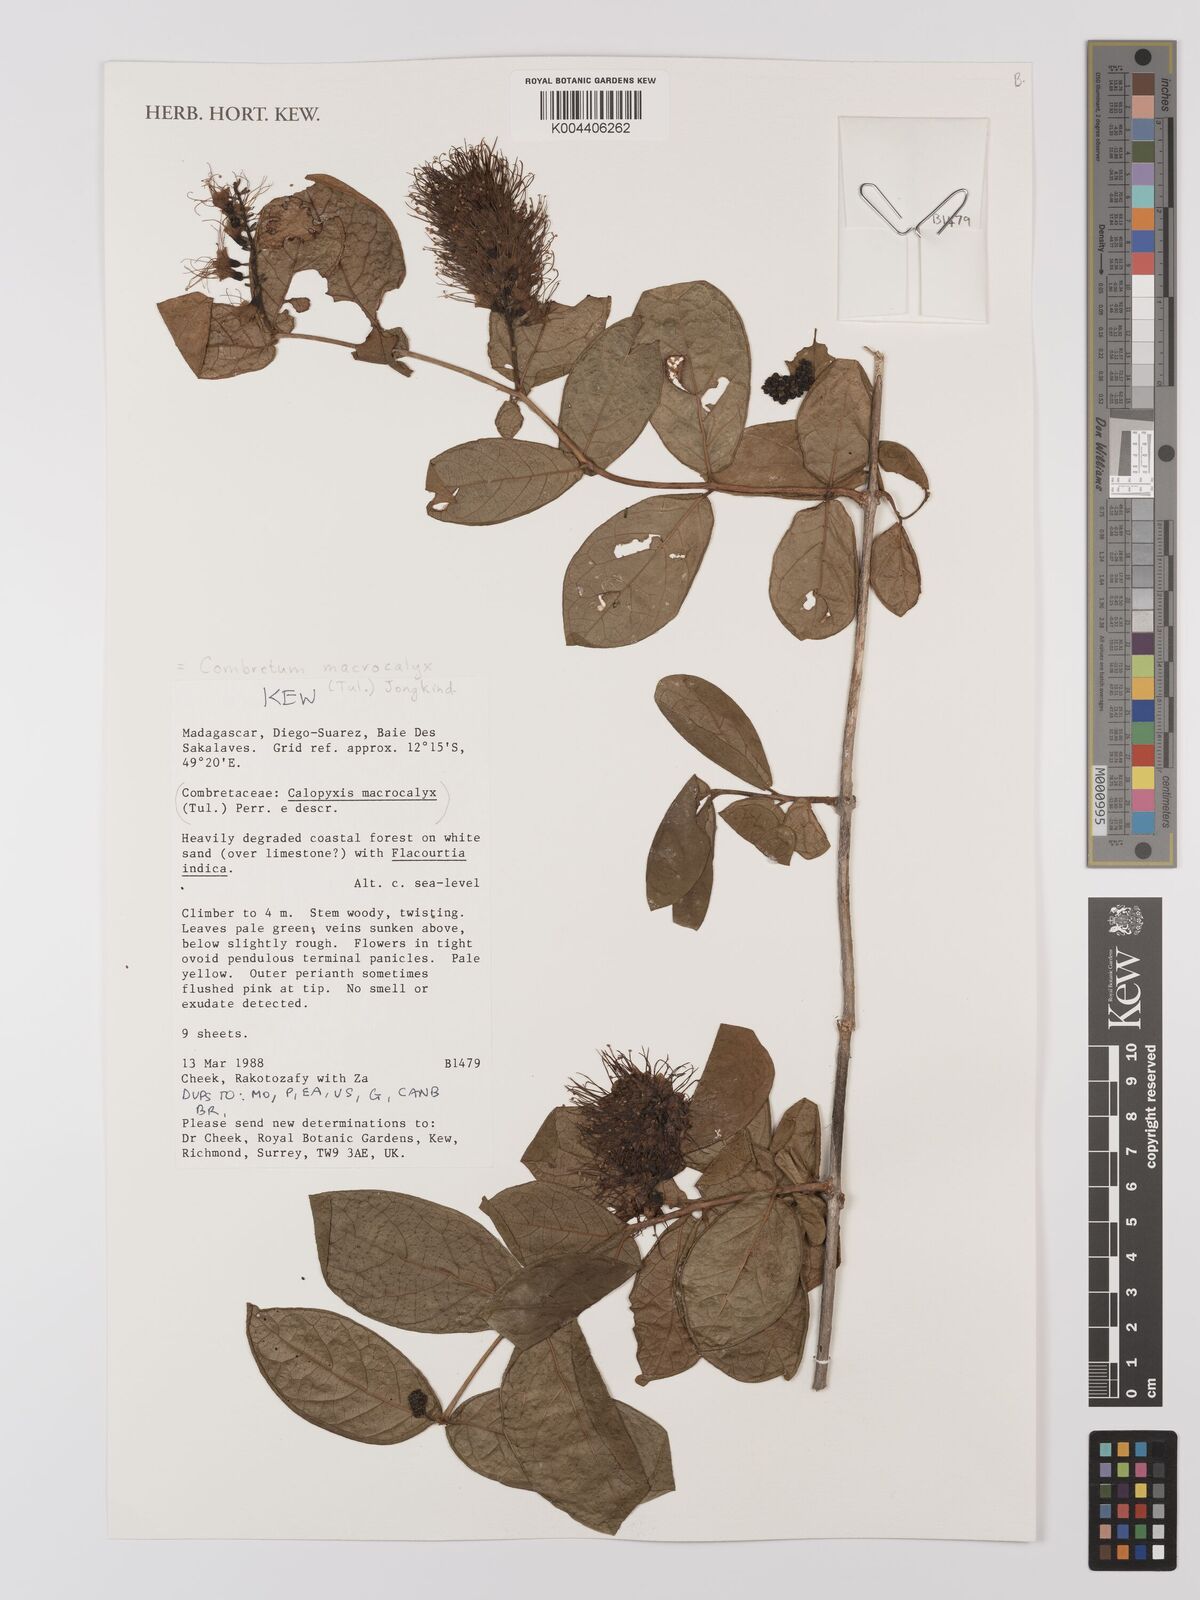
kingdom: Plantae
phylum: Tracheophyta
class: Magnoliopsida
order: Myrtales
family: Combretaceae
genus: Combretum
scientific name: Combretum macrocalyx
